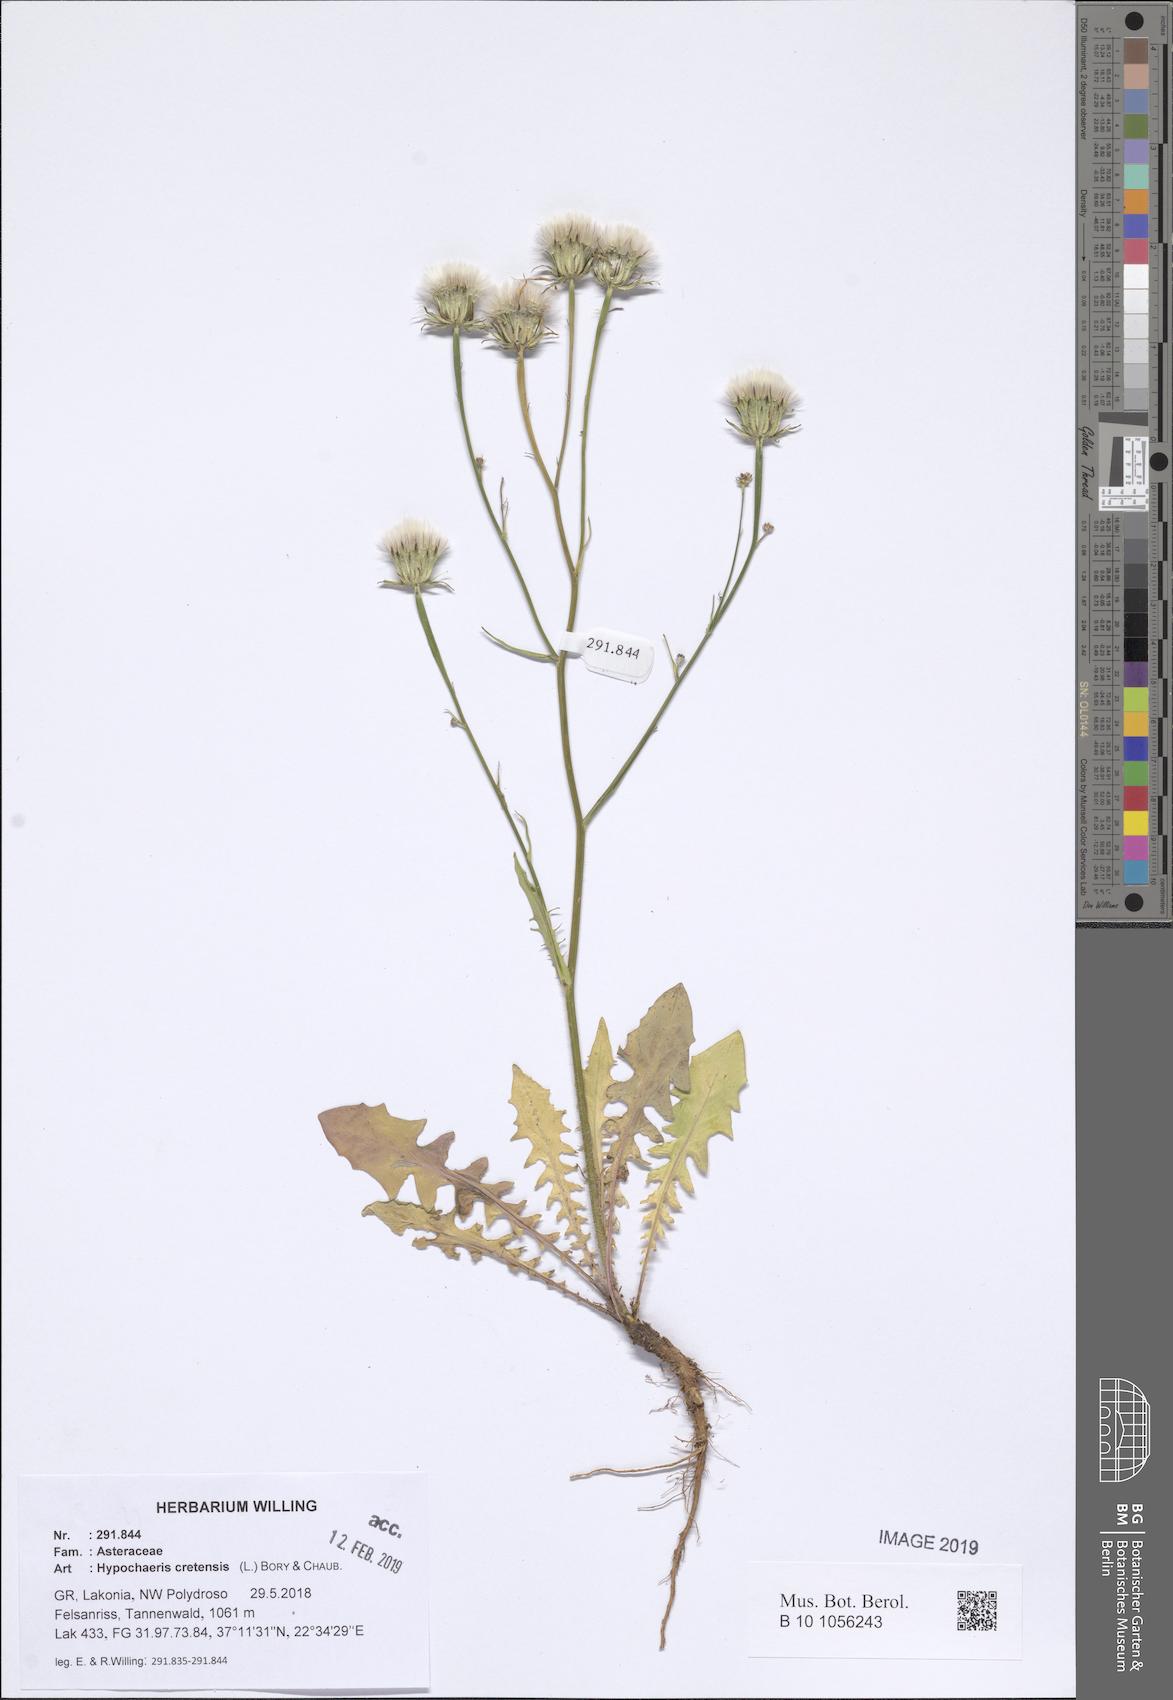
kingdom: Plantae
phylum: Tracheophyta
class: Magnoliopsida
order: Asterales
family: Asteraceae
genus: Hypochaeris
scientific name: Hypochaeris cretensis
